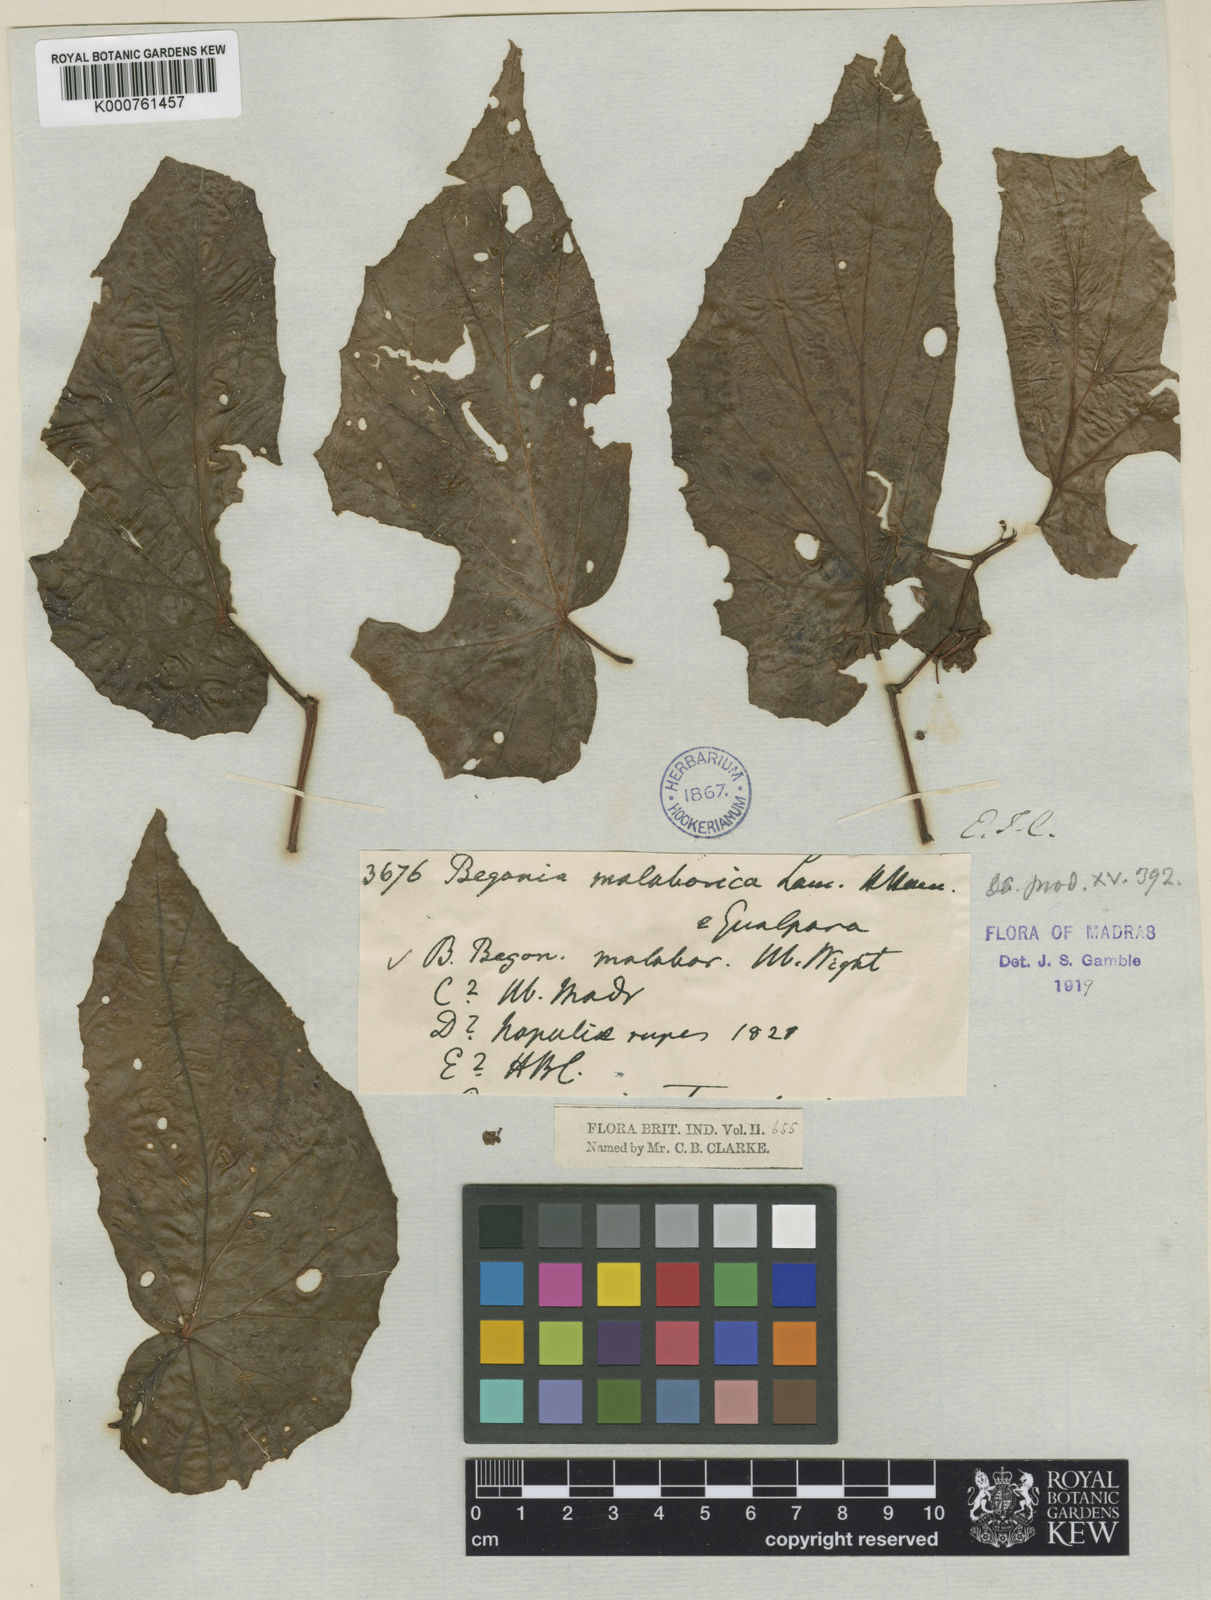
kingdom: Plantae
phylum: Tracheophyta
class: Magnoliopsida
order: Cucurbitales
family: Begoniaceae
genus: Begonia
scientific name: Begonia malabarica
